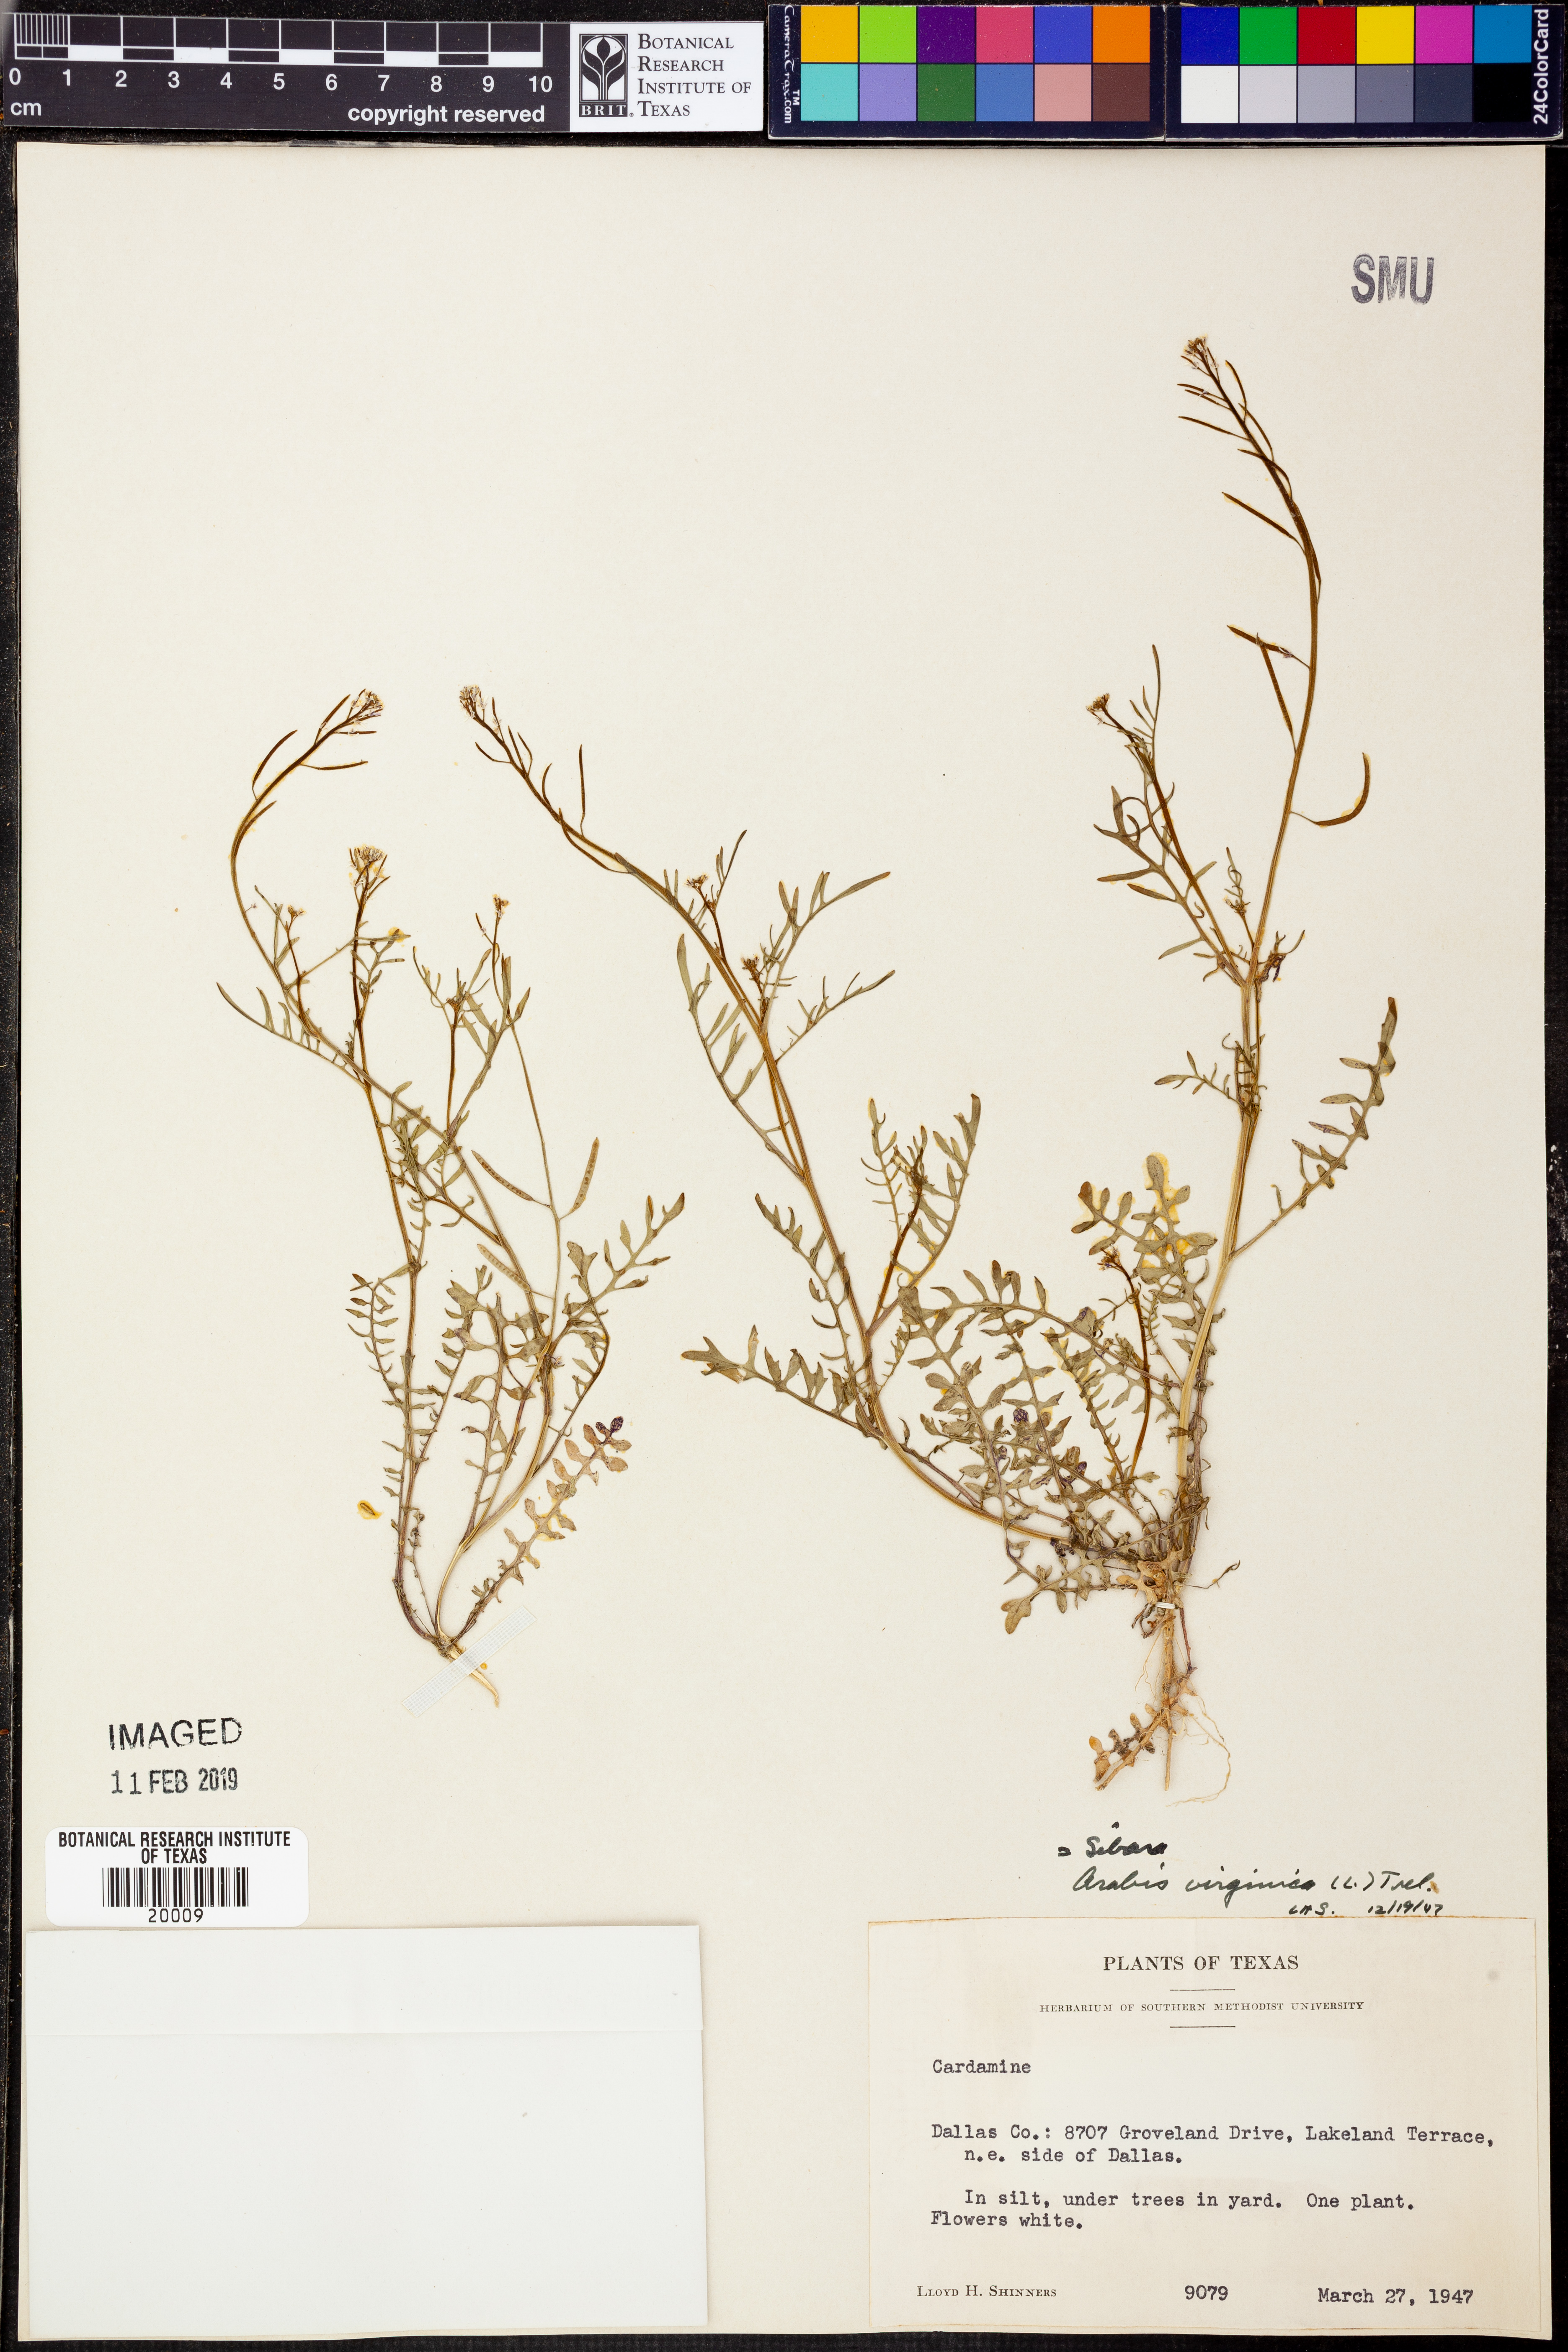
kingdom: Plantae
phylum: Tracheophyta
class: Magnoliopsida
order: Brassicales
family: Brassicaceae
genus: Planodes
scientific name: Planodes virginicum
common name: Virginia cress
